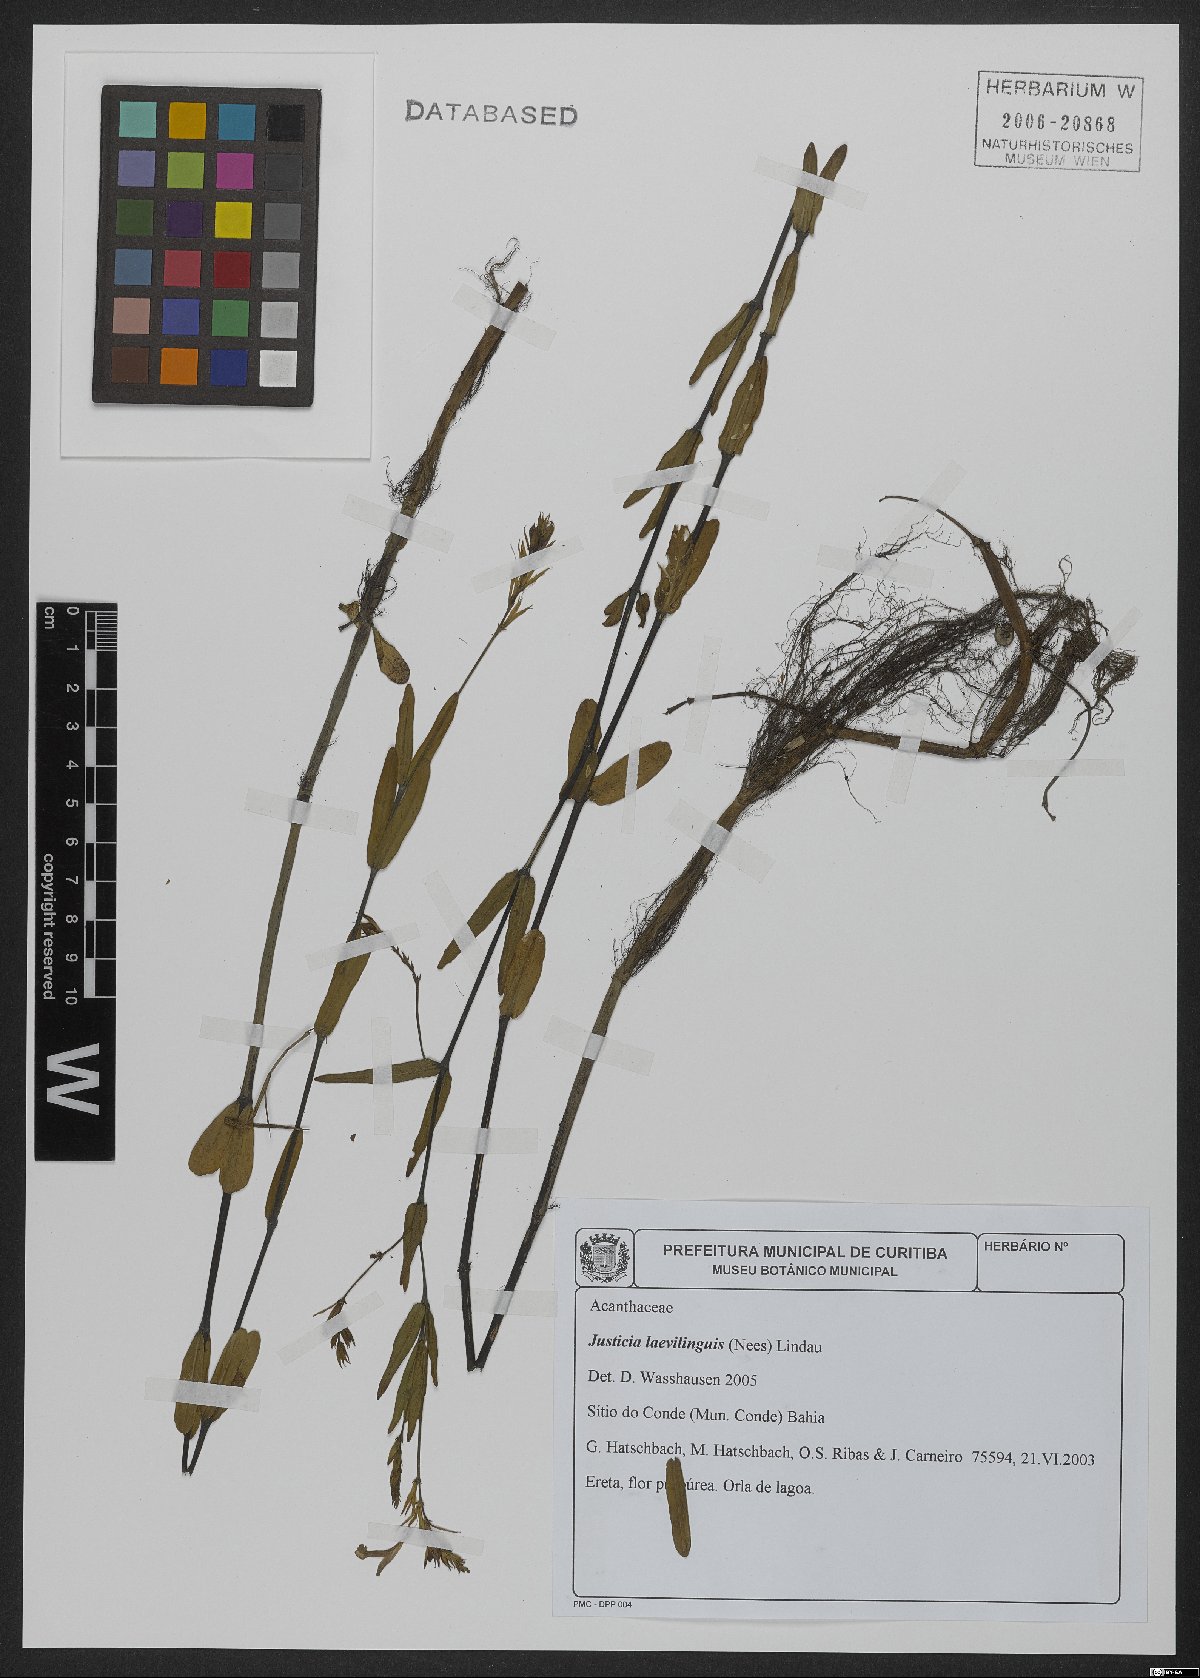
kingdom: Plantae
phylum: Tracheophyta
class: Magnoliopsida
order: Lamiales
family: Acanthaceae
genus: Dianthera
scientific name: Dianthera laevilinguis
